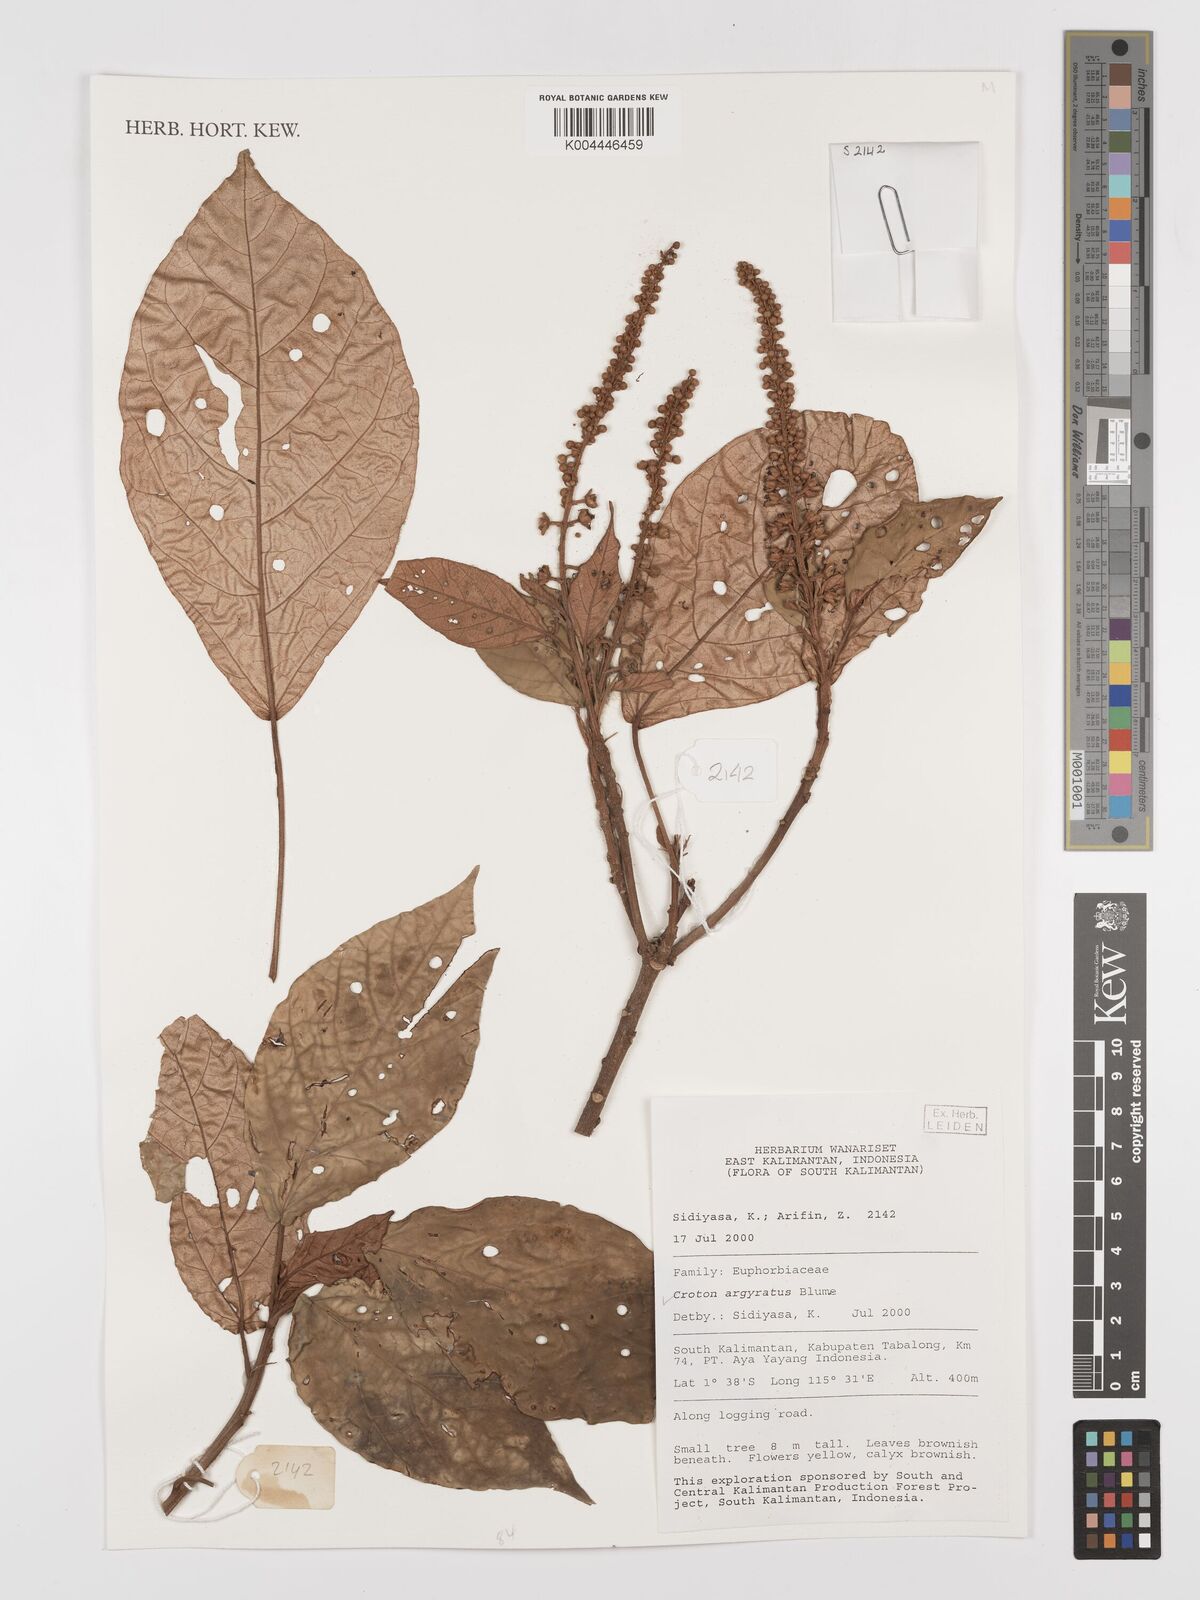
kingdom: Plantae
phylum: Tracheophyta
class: Magnoliopsida
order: Malpighiales
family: Euphorbiaceae
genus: Croton
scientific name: Croton argyratus
